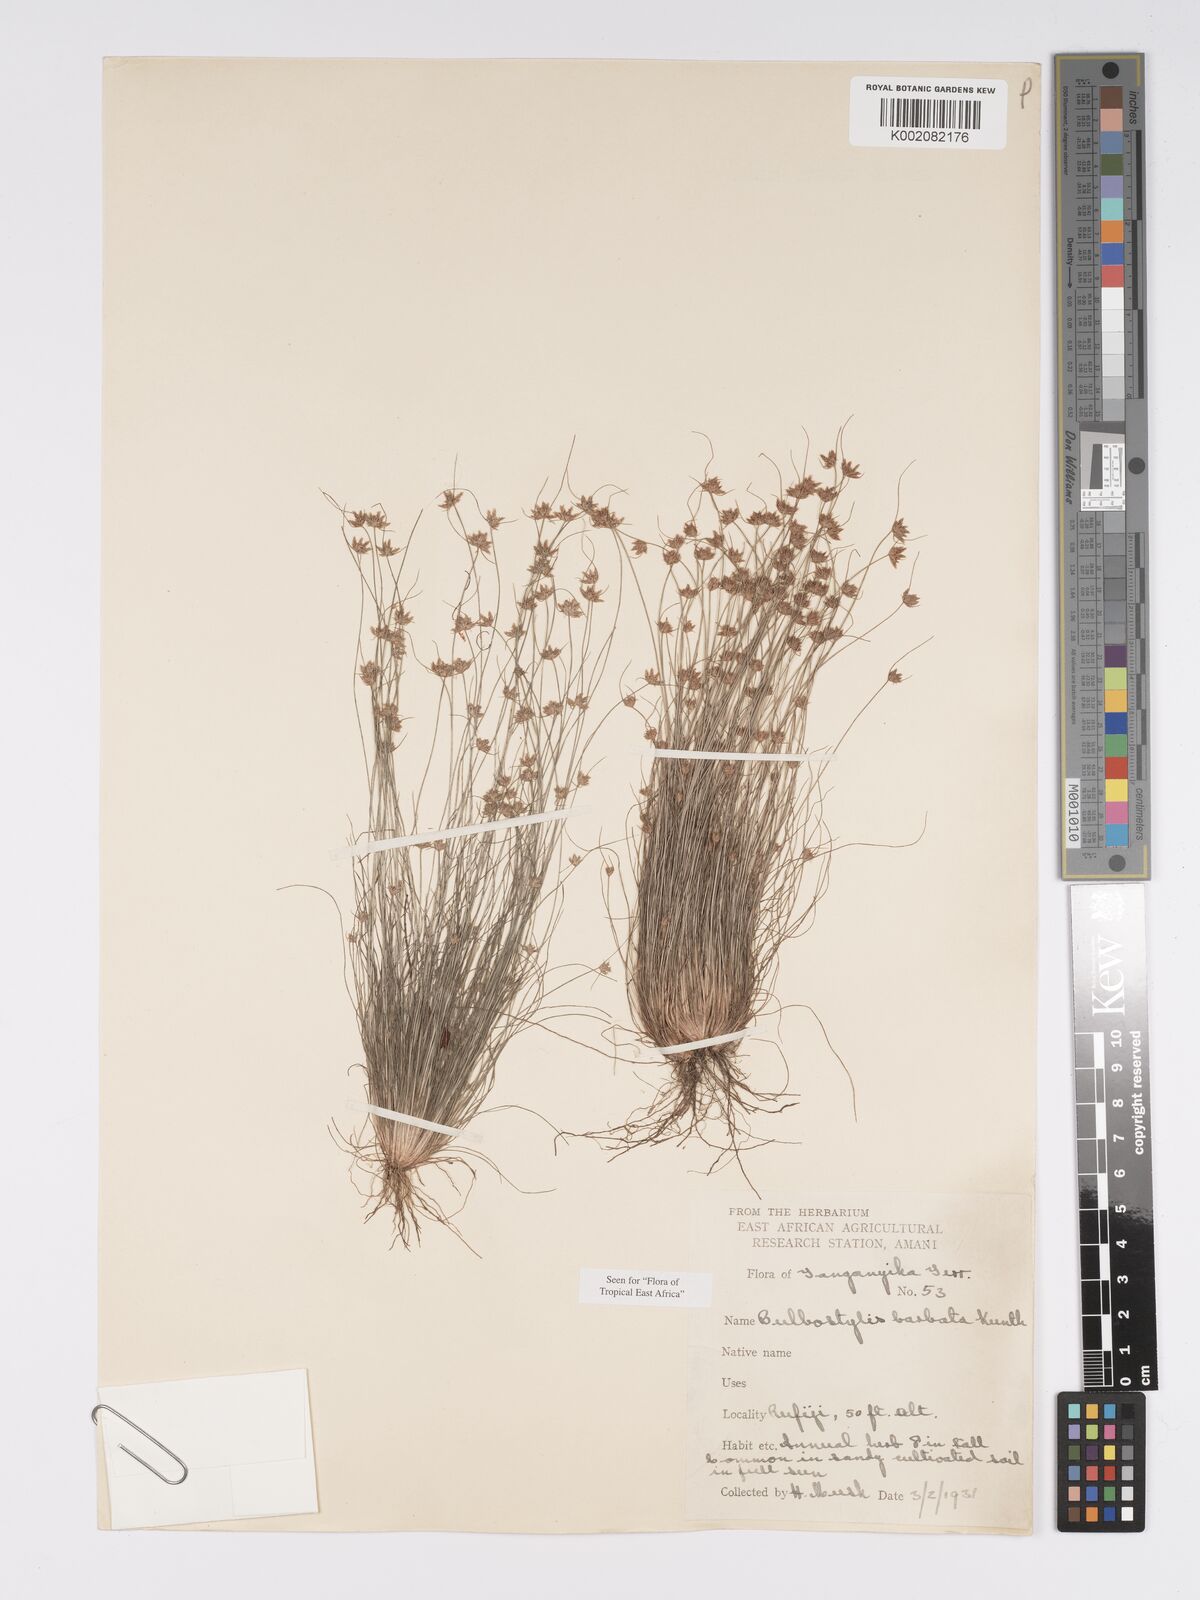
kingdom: Plantae
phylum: Tracheophyta
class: Liliopsida
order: Poales
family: Cyperaceae
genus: Bulbostylis
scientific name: Bulbostylis barbata
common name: Watergrass
